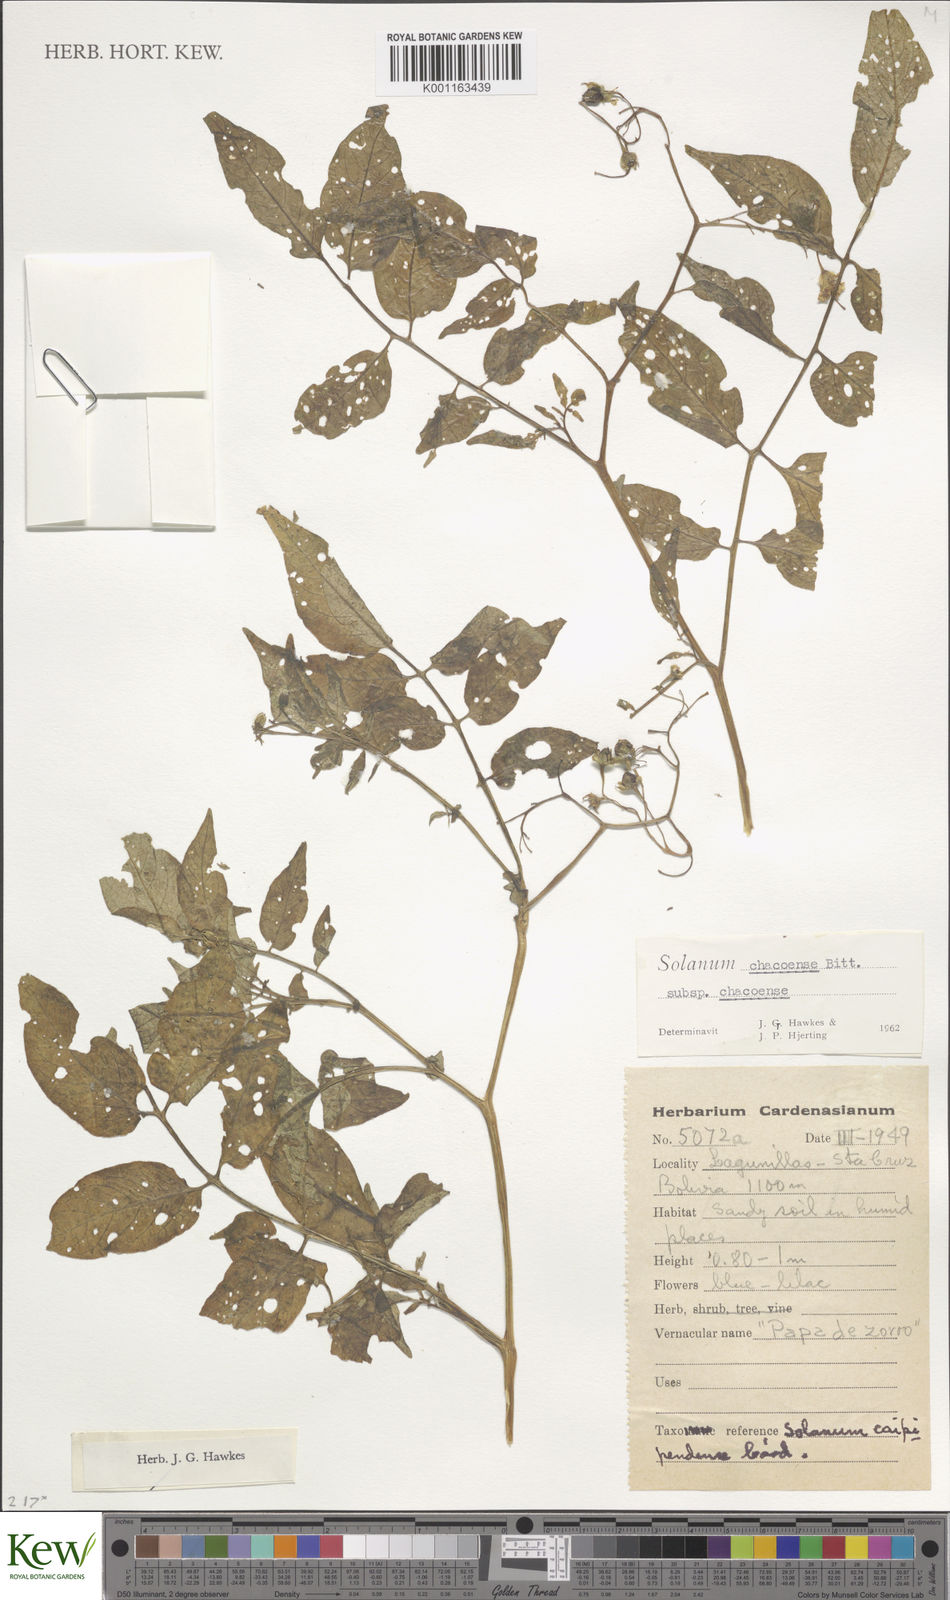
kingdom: Plantae
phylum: Tracheophyta
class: Magnoliopsida
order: Solanales
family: Solanaceae
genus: Solanum
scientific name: Solanum chacoense
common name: Chaco potato
